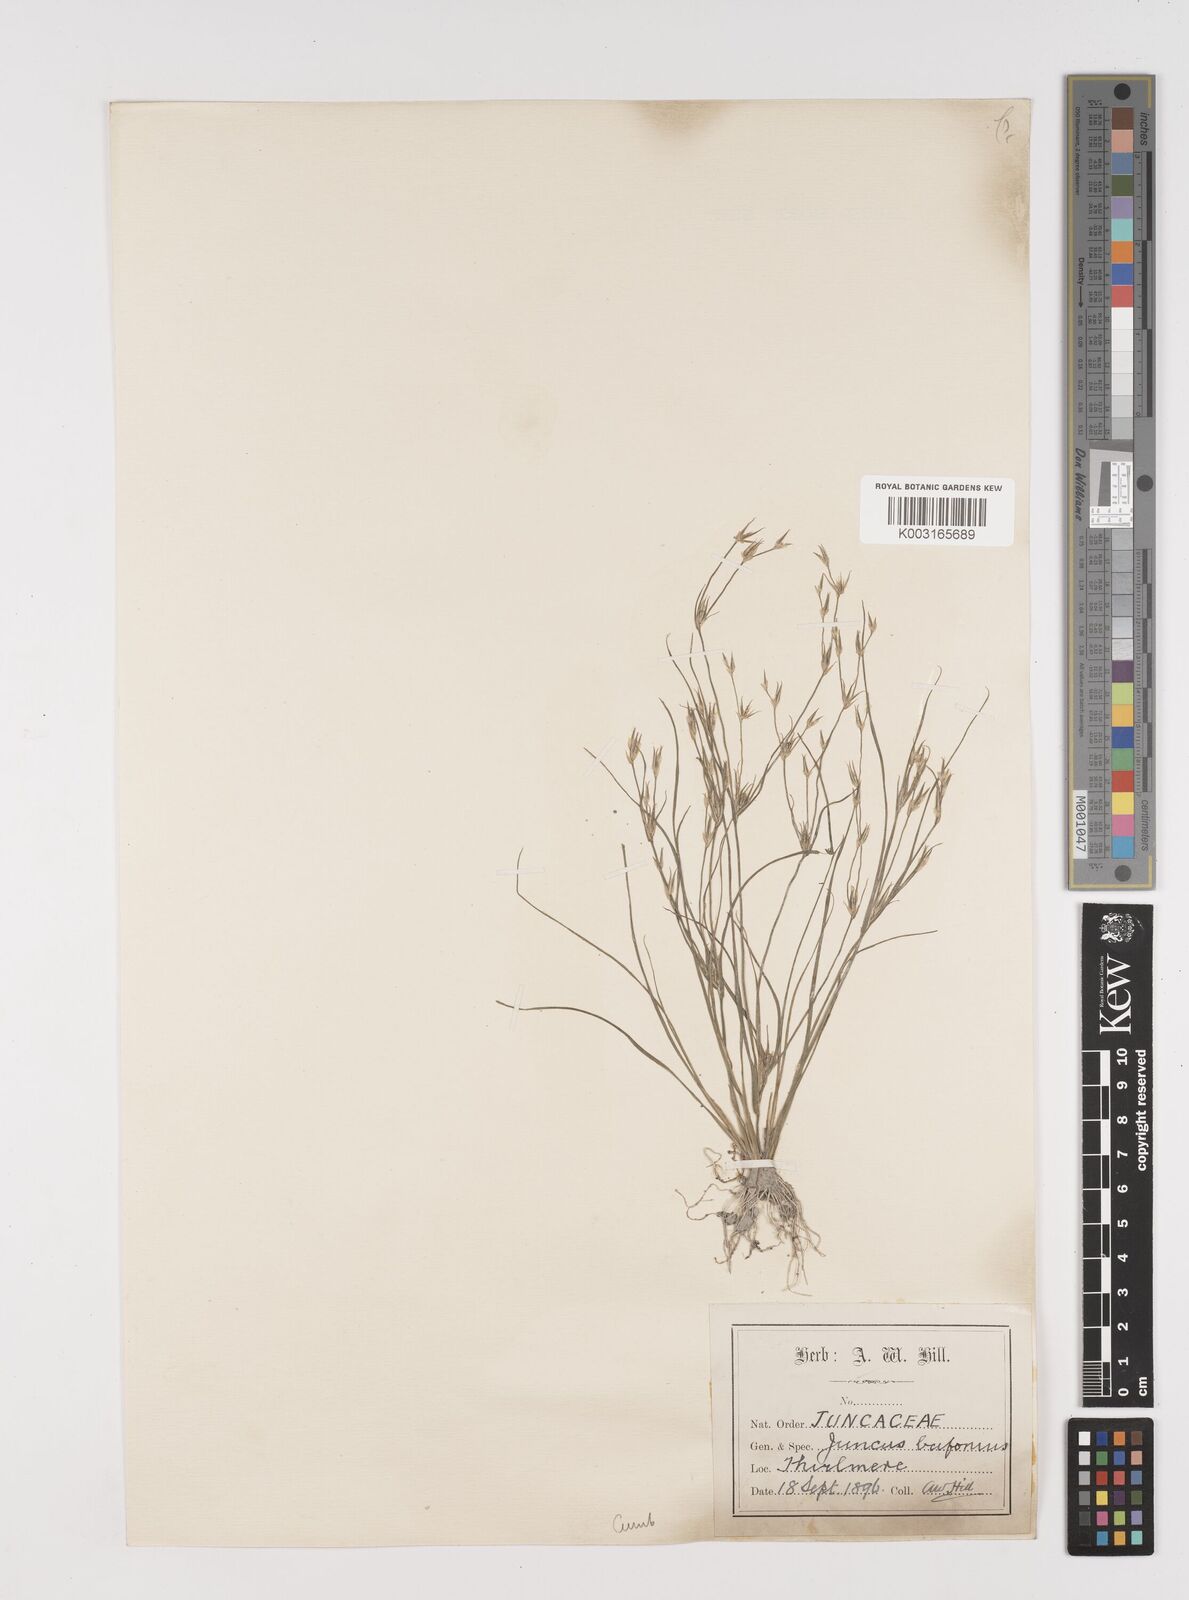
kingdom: Plantae
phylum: Tracheophyta
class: Liliopsida
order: Poales
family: Juncaceae
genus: Juncus
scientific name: Juncus bufonius
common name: Toad rush
